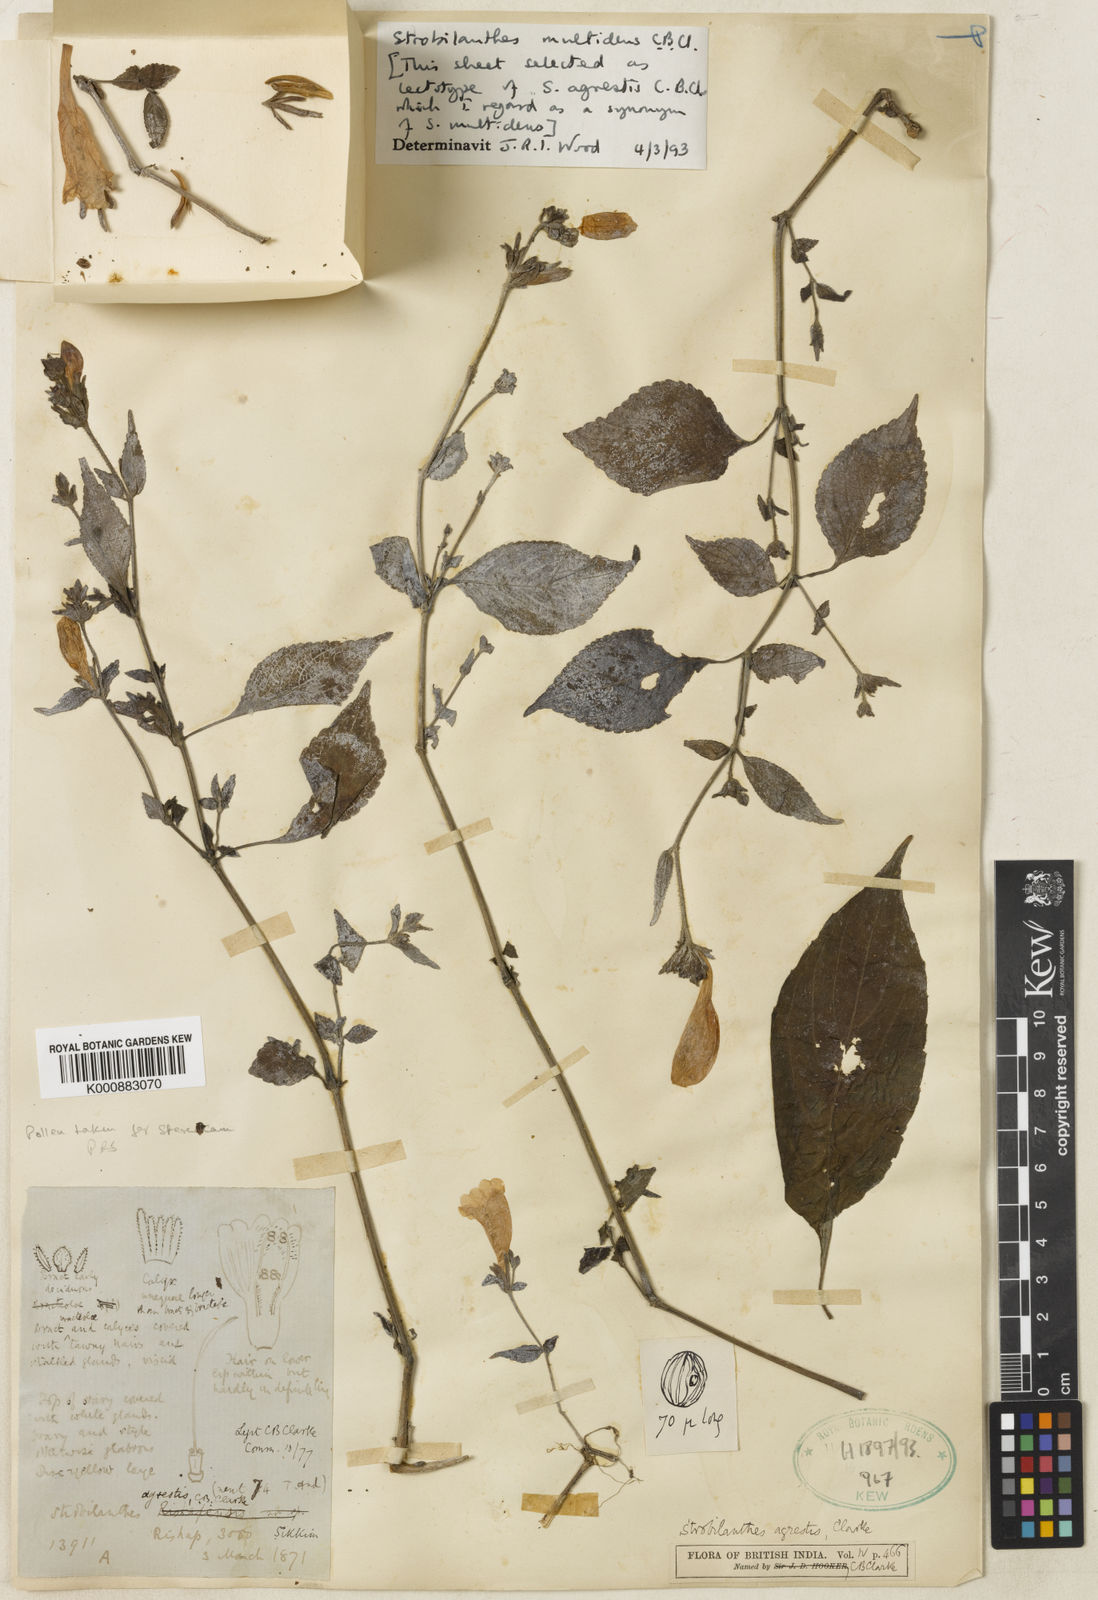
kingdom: Plantae
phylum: Tracheophyta
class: Magnoliopsida
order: Lamiales
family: Acanthaceae
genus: Strobilanthes
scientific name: Strobilanthes multidens
